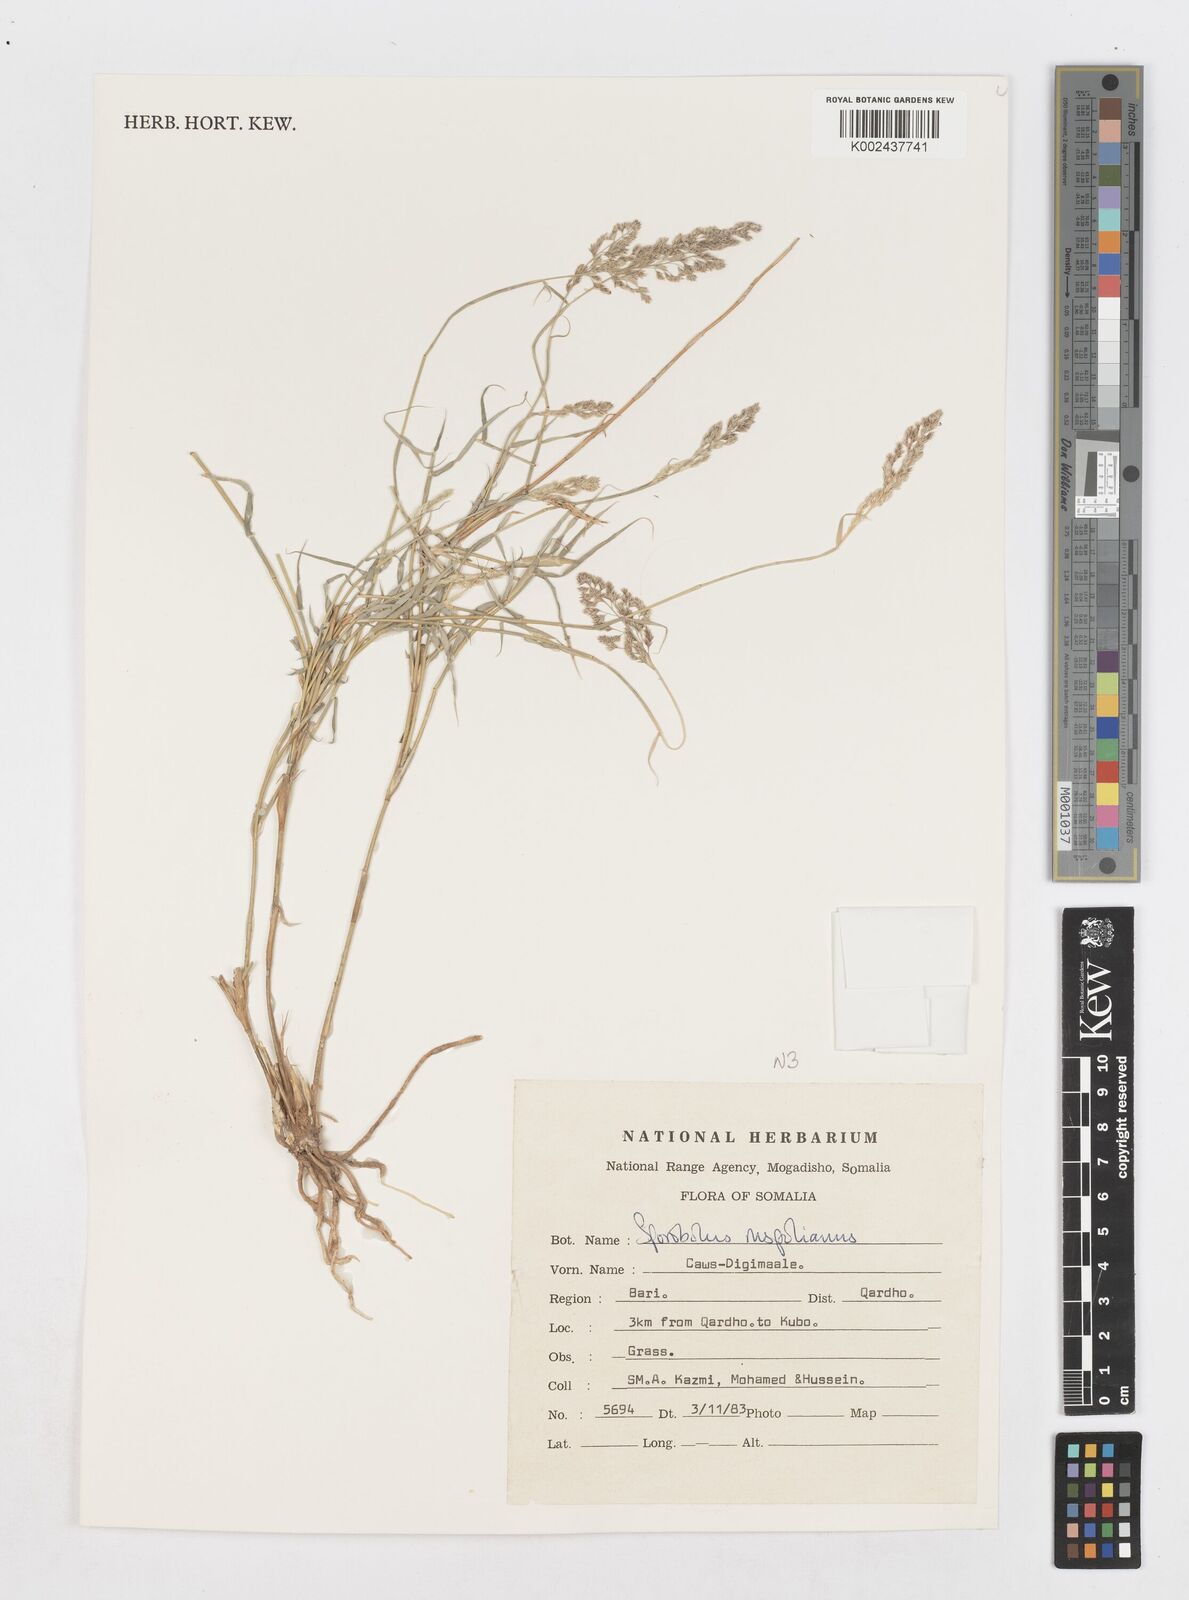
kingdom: Plantae
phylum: Tracheophyta
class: Liliopsida
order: Poales
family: Poaceae
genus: Sporobolus
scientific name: Sporobolus ruspolianus
